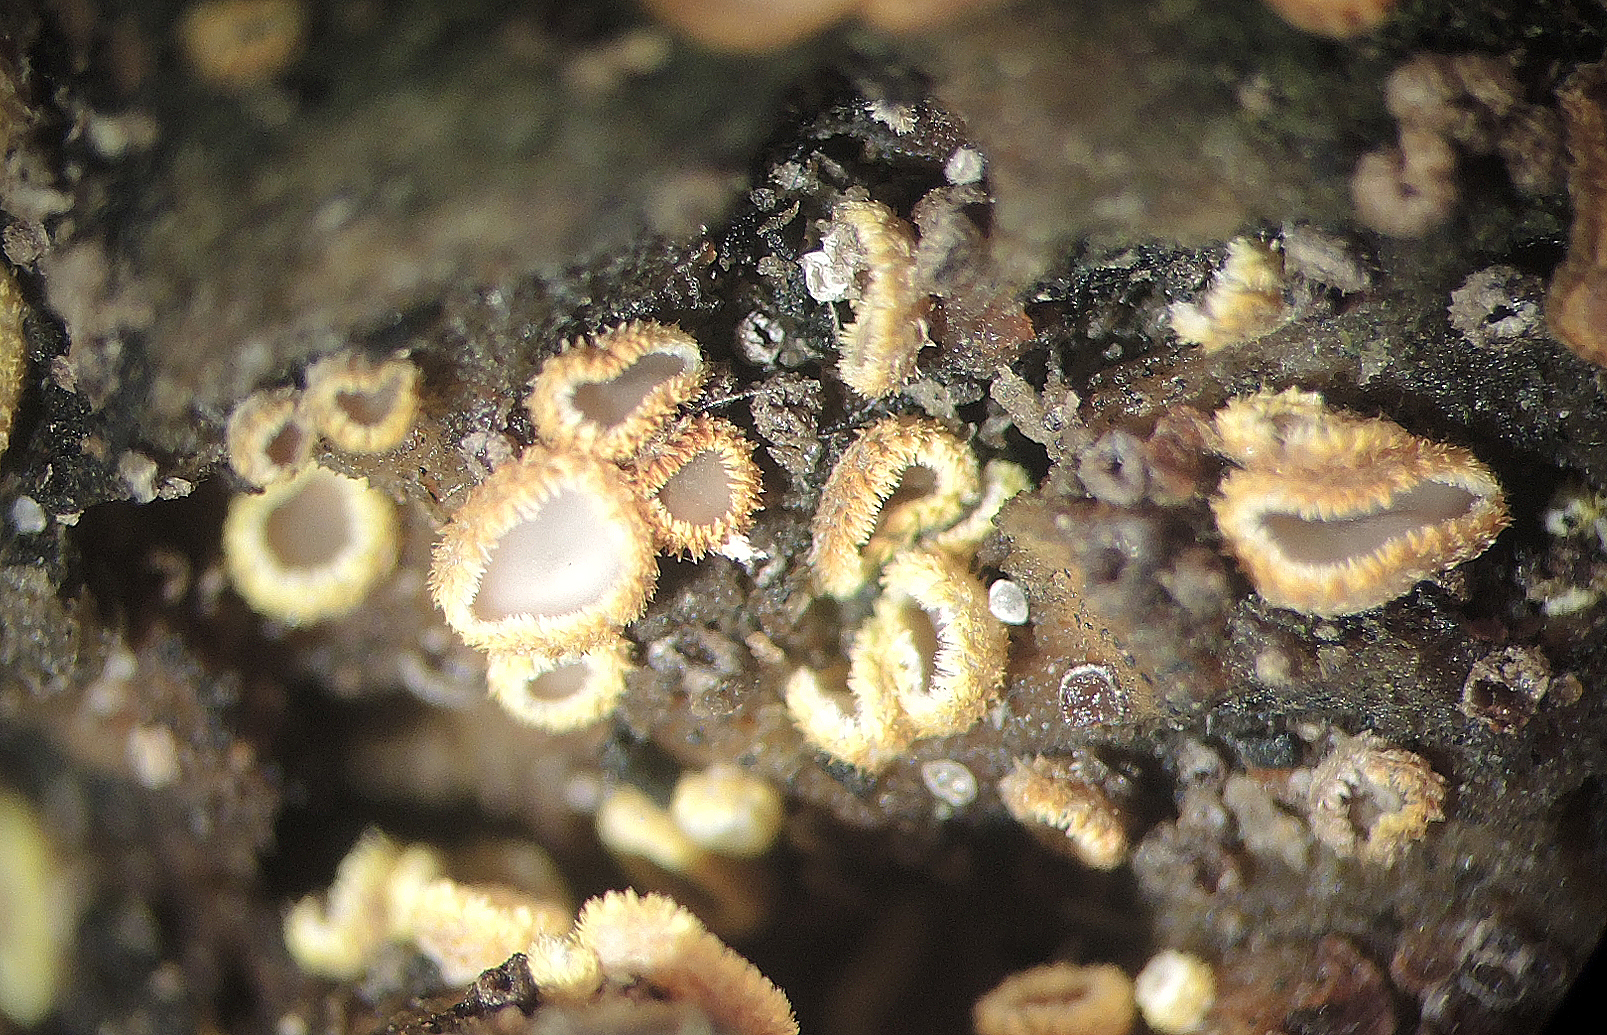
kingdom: Fungi
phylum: Ascomycota
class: Leotiomycetes
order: Helotiales
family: Lachnaceae
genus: Trichopeziza
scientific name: Trichopeziza subsulphurea
